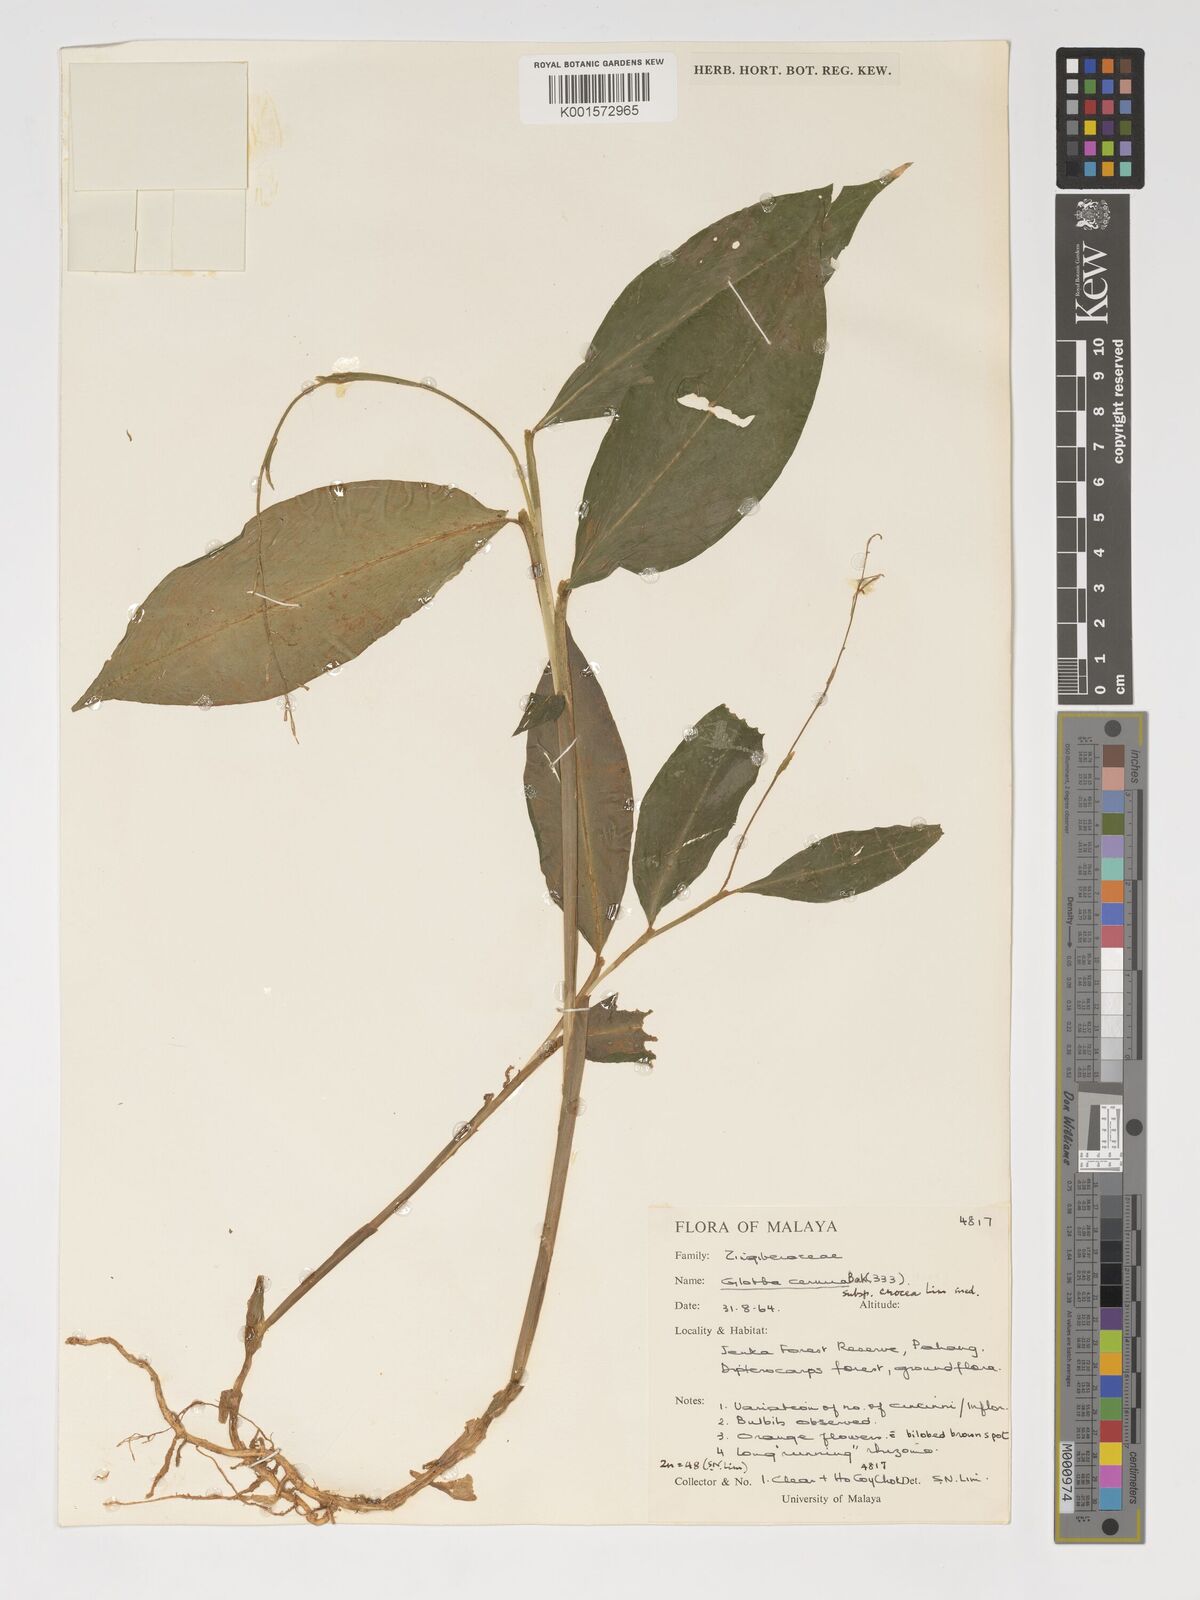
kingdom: Plantae
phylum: Tracheophyta
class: Liliopsida
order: Zingiberales
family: Zingiberaceae
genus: Globba
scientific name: Globba cernua
